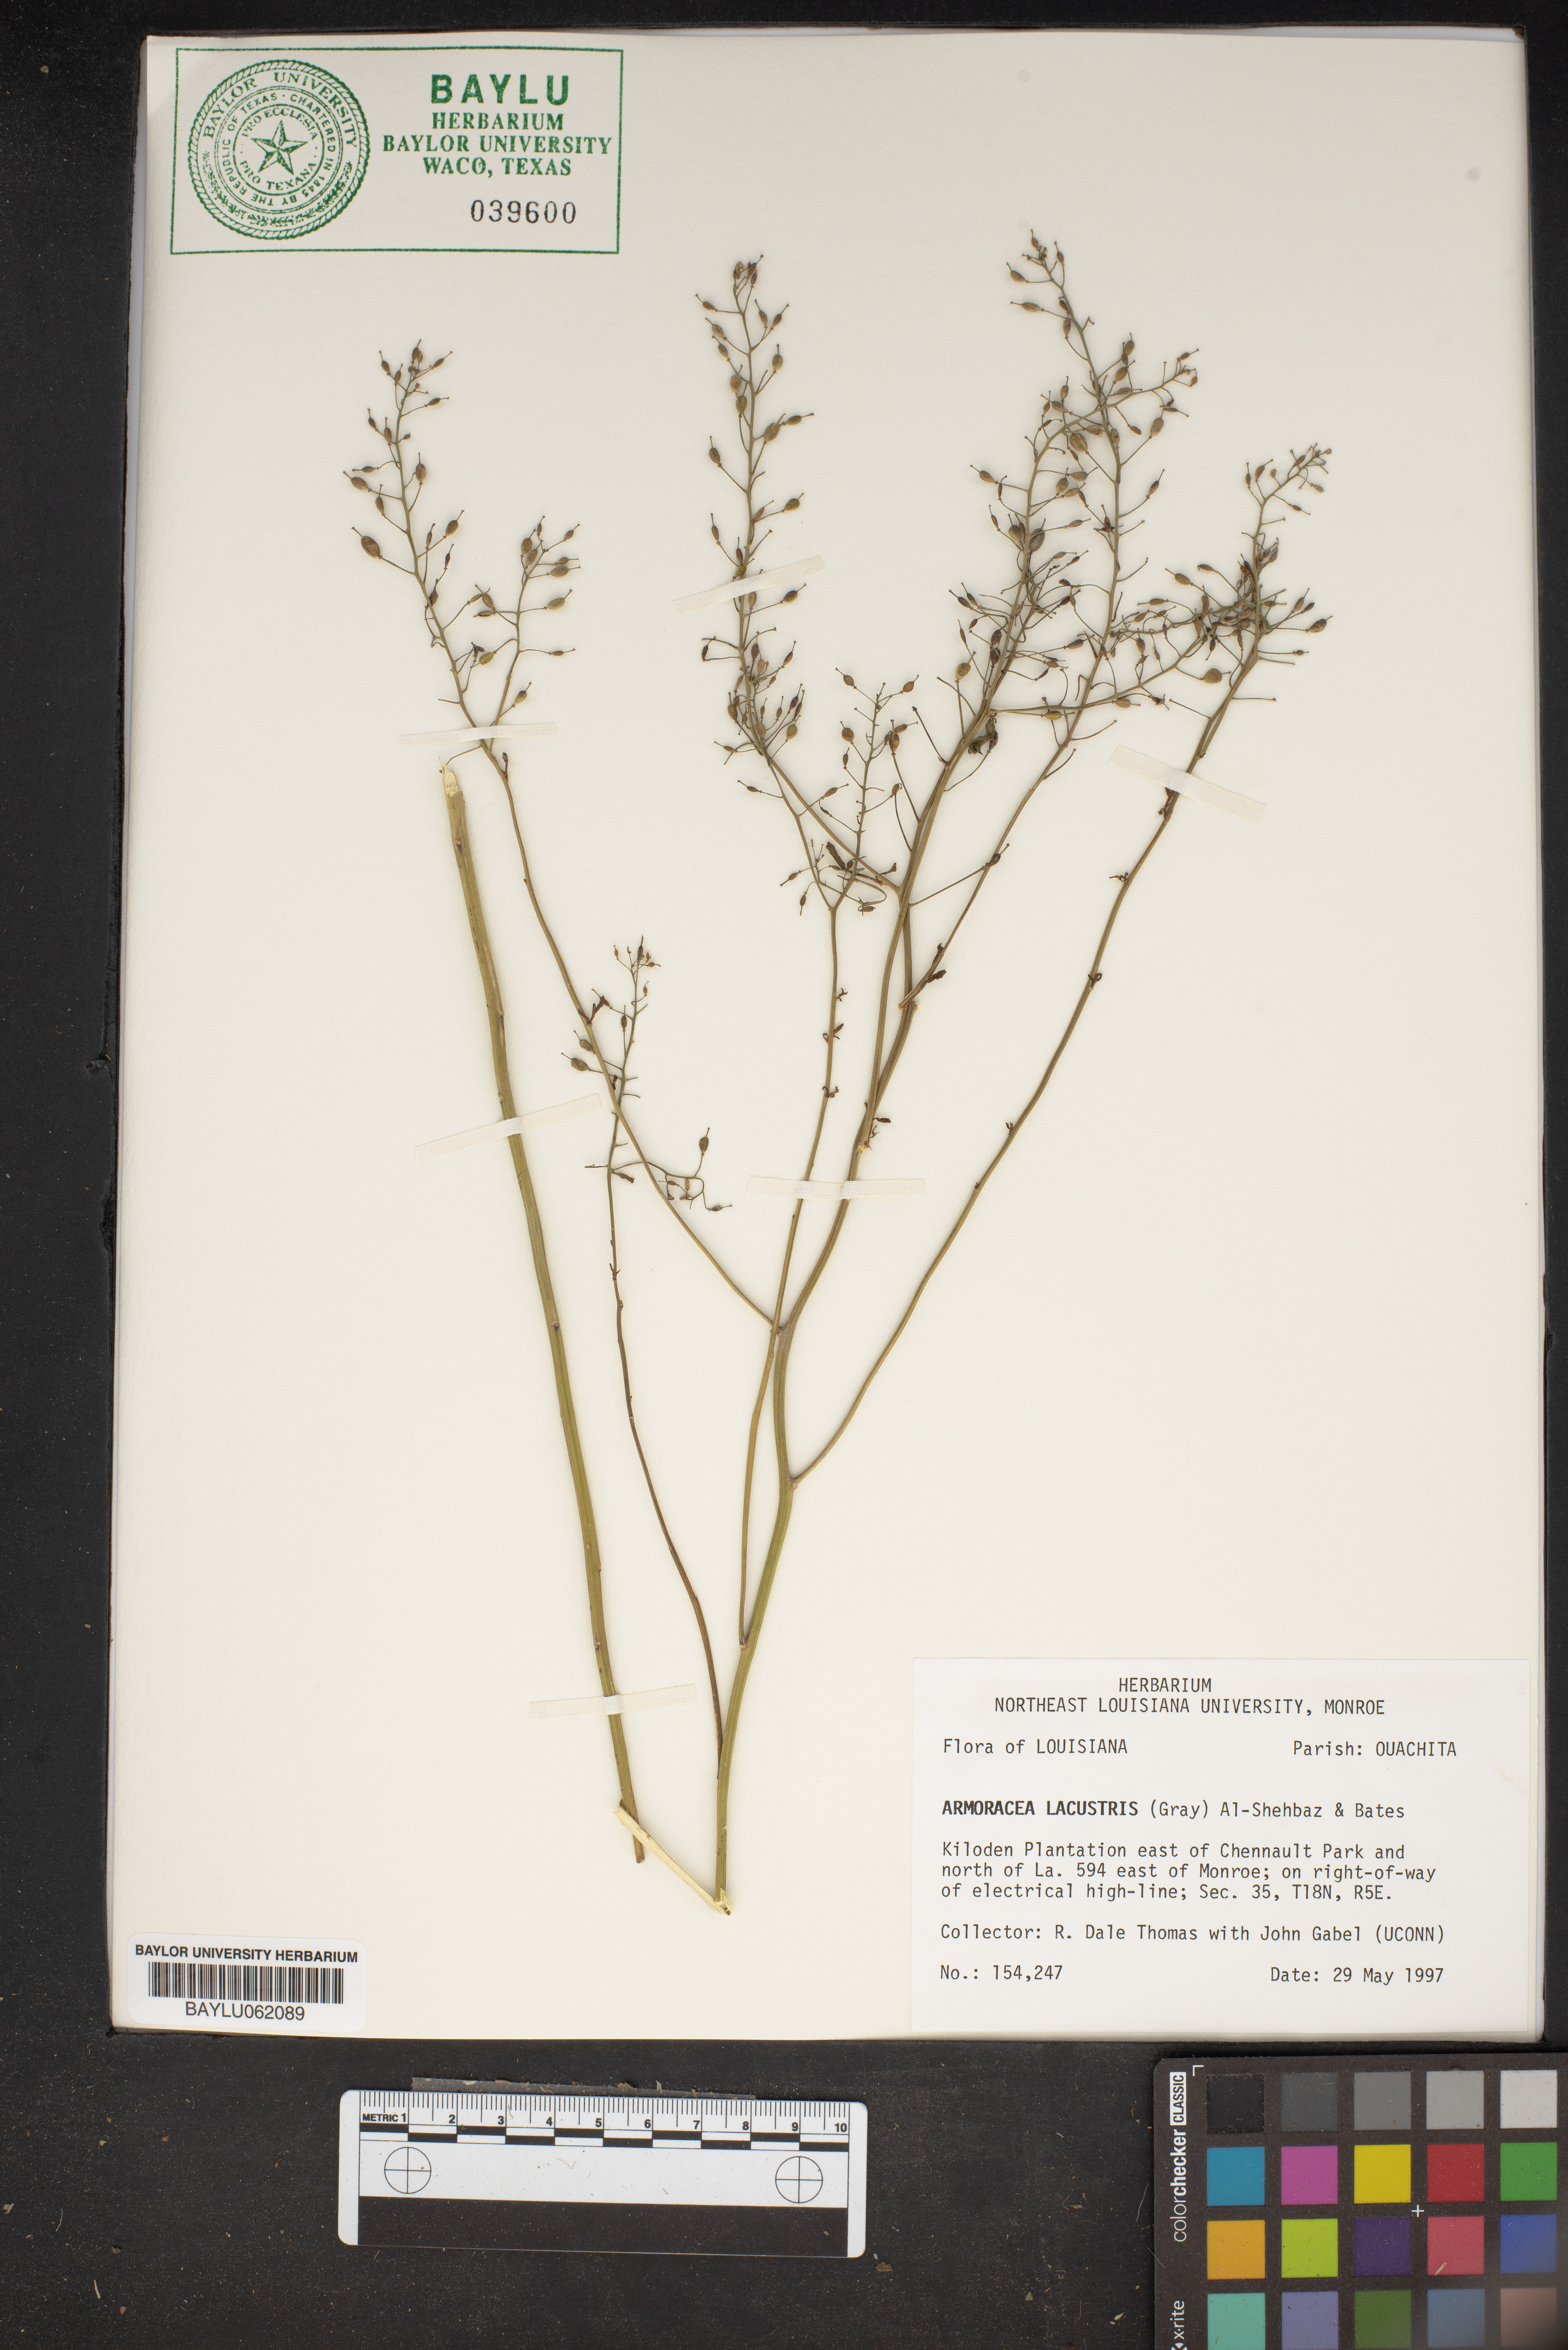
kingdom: Plantae
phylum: Tracheophyta
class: Magnoliopsida
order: Brassicales
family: Brassicaceae
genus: Rorippa
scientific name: Rorippa aquatica
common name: Lake watercress
